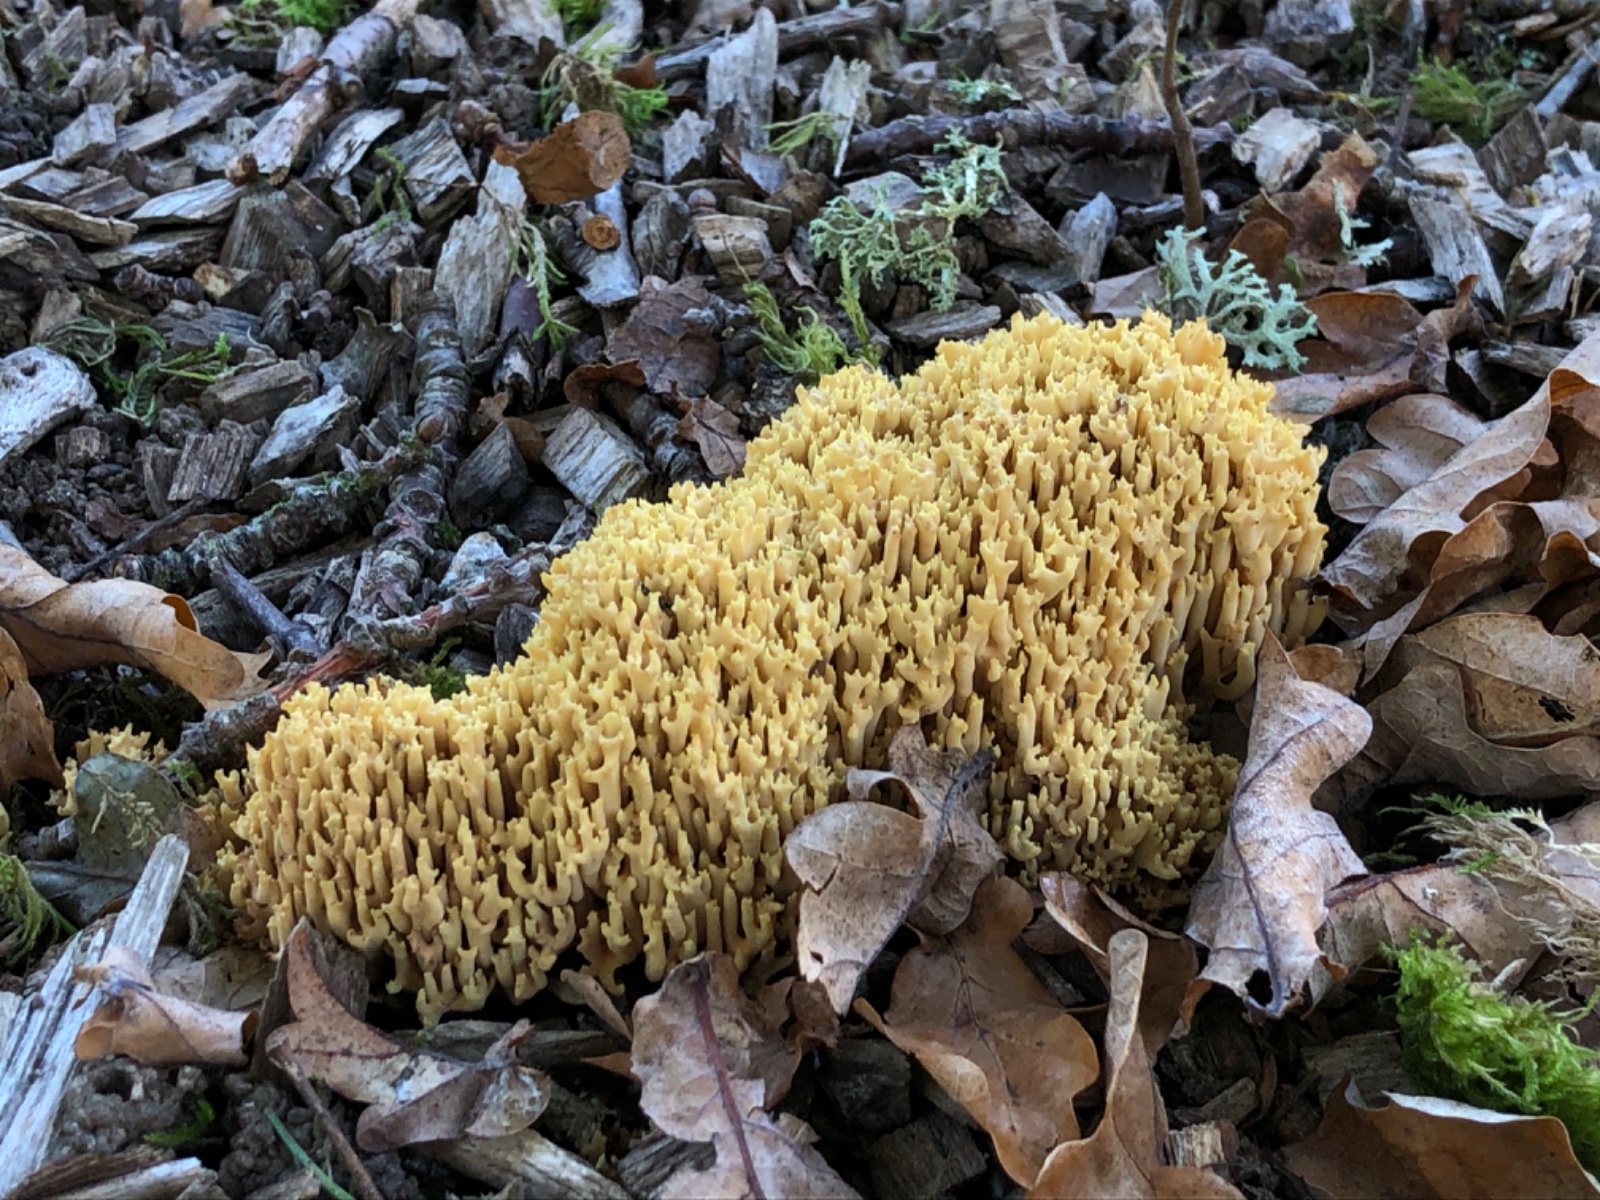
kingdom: Fungi
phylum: Basidiomycota
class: Agaricomycetes
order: Gomphales
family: Gomphaceae
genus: Ramaria
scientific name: Ramaria stricta
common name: rank koralsvamp
